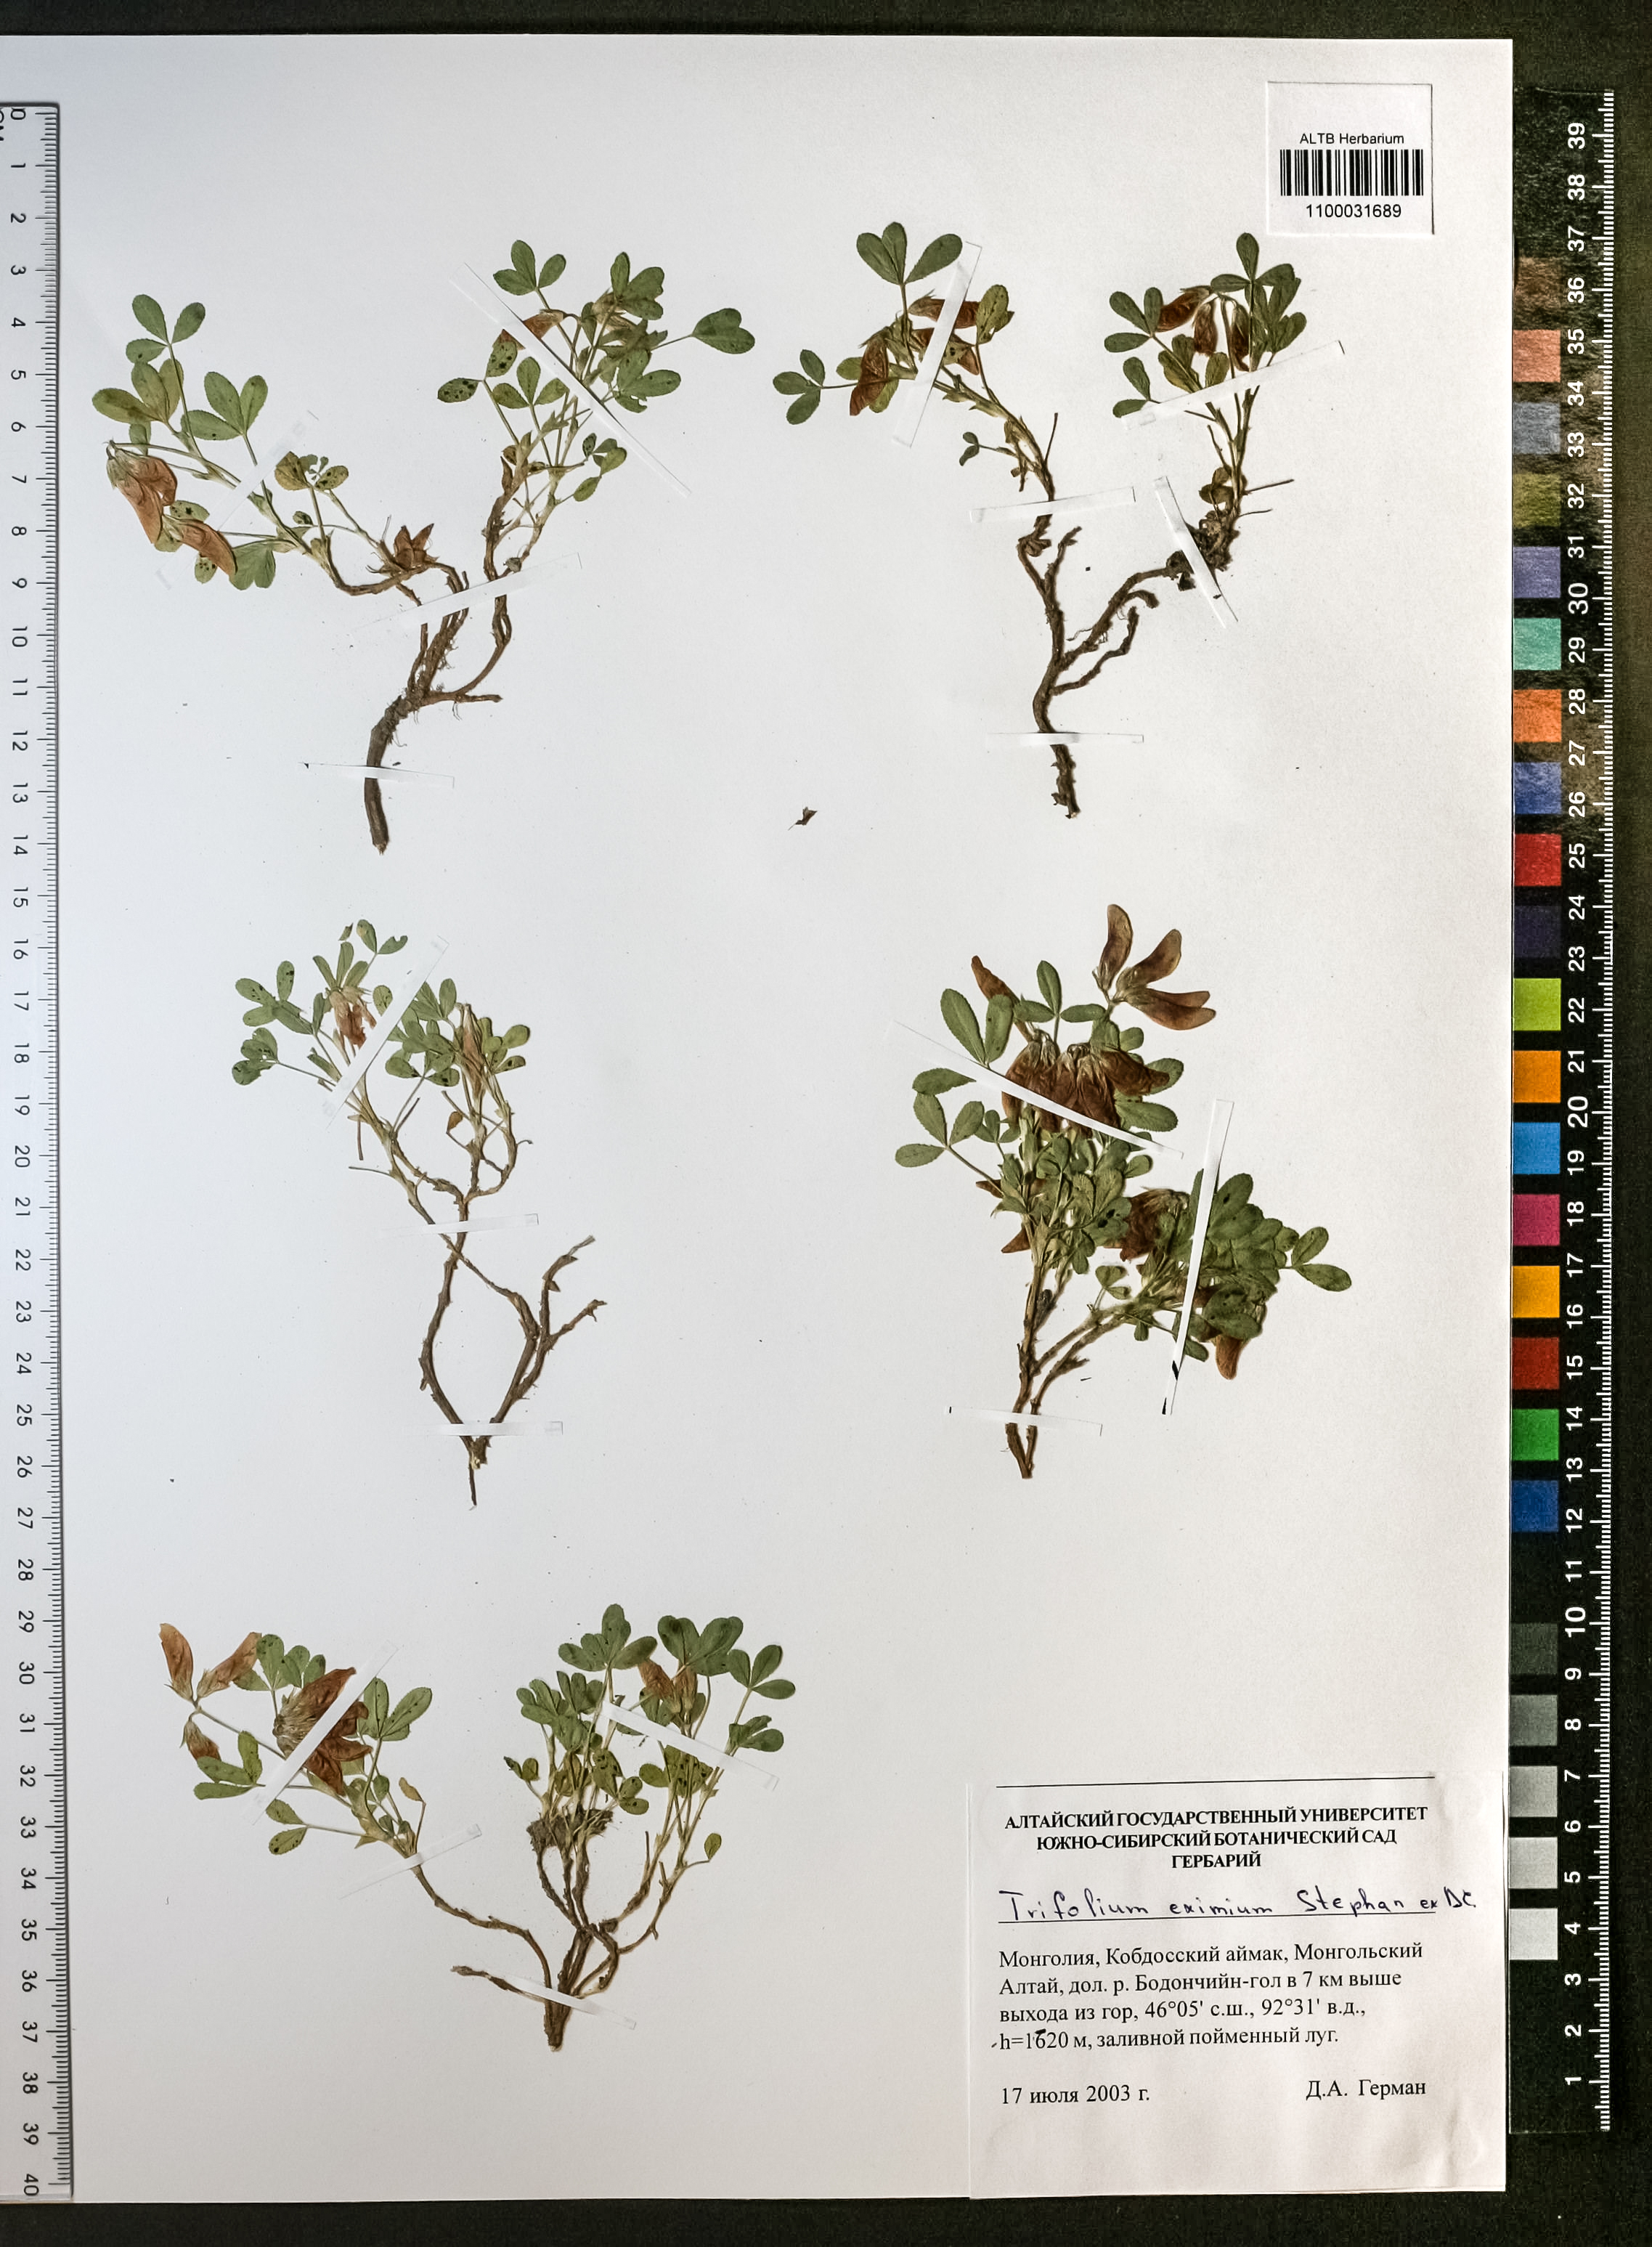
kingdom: Plantae
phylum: Tracheophyta
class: Magnoliopsida
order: Fabales
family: Fabaceae
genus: Trifolium
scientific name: Trifolium eximium
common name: Excellent clover
